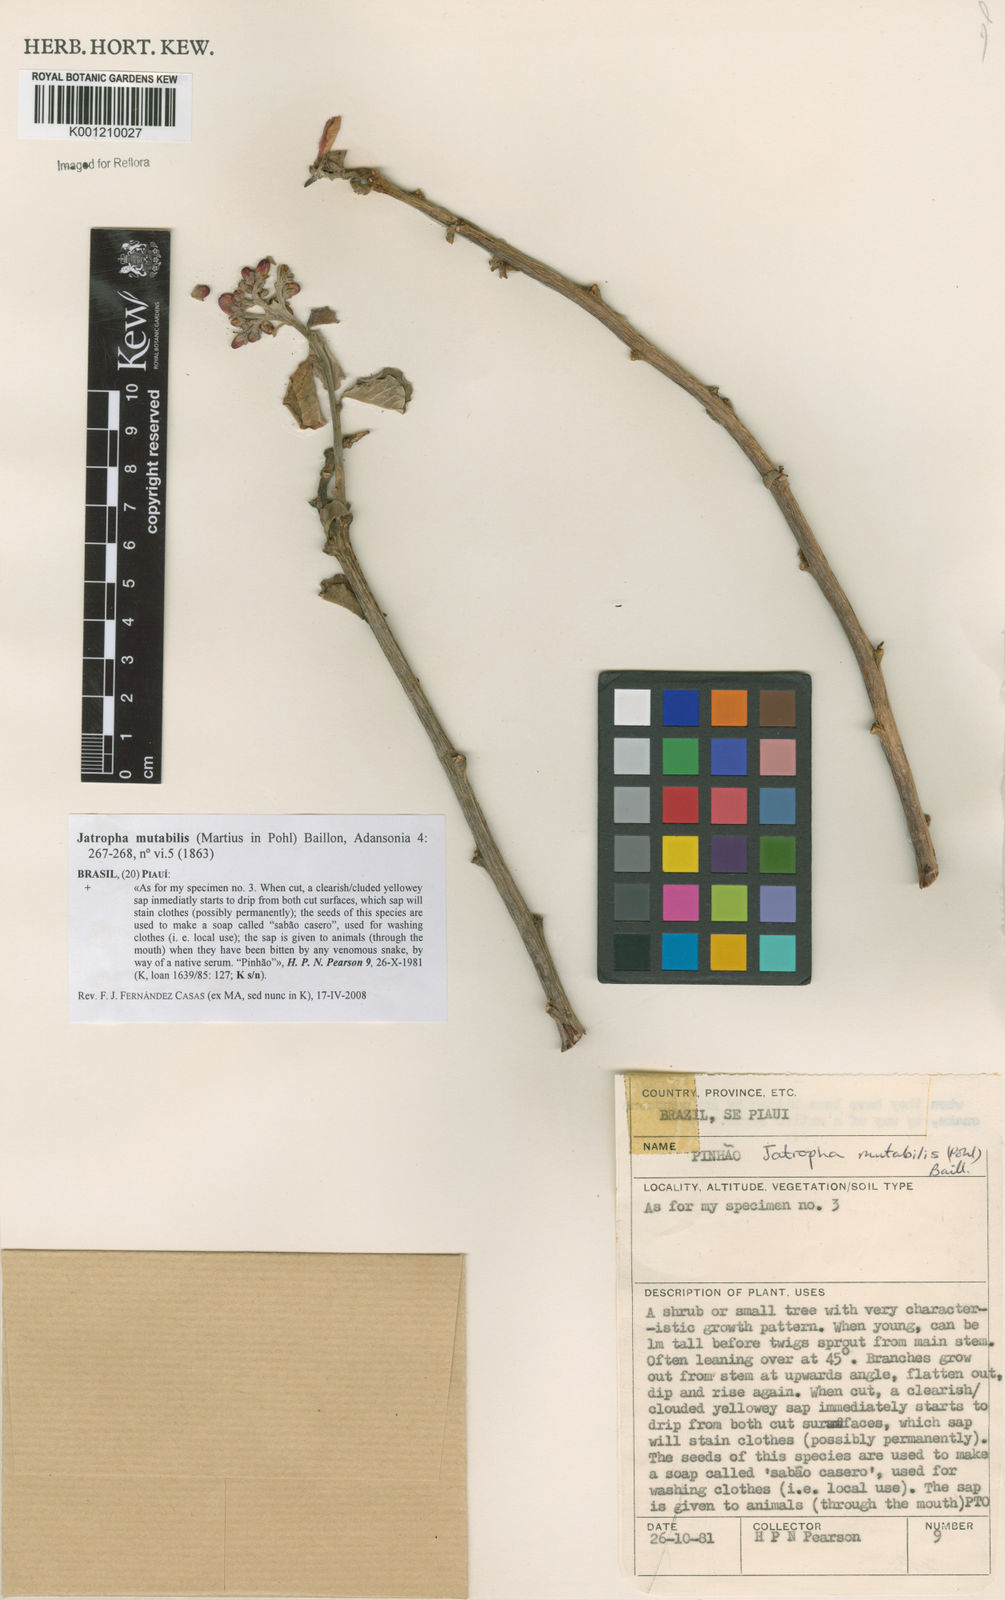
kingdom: Plantae
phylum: Tracheophyta
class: Magnoliopsida
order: Malpighiales
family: Euphorbiaceae
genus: Jatropha
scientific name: Jatropha mutabilis
